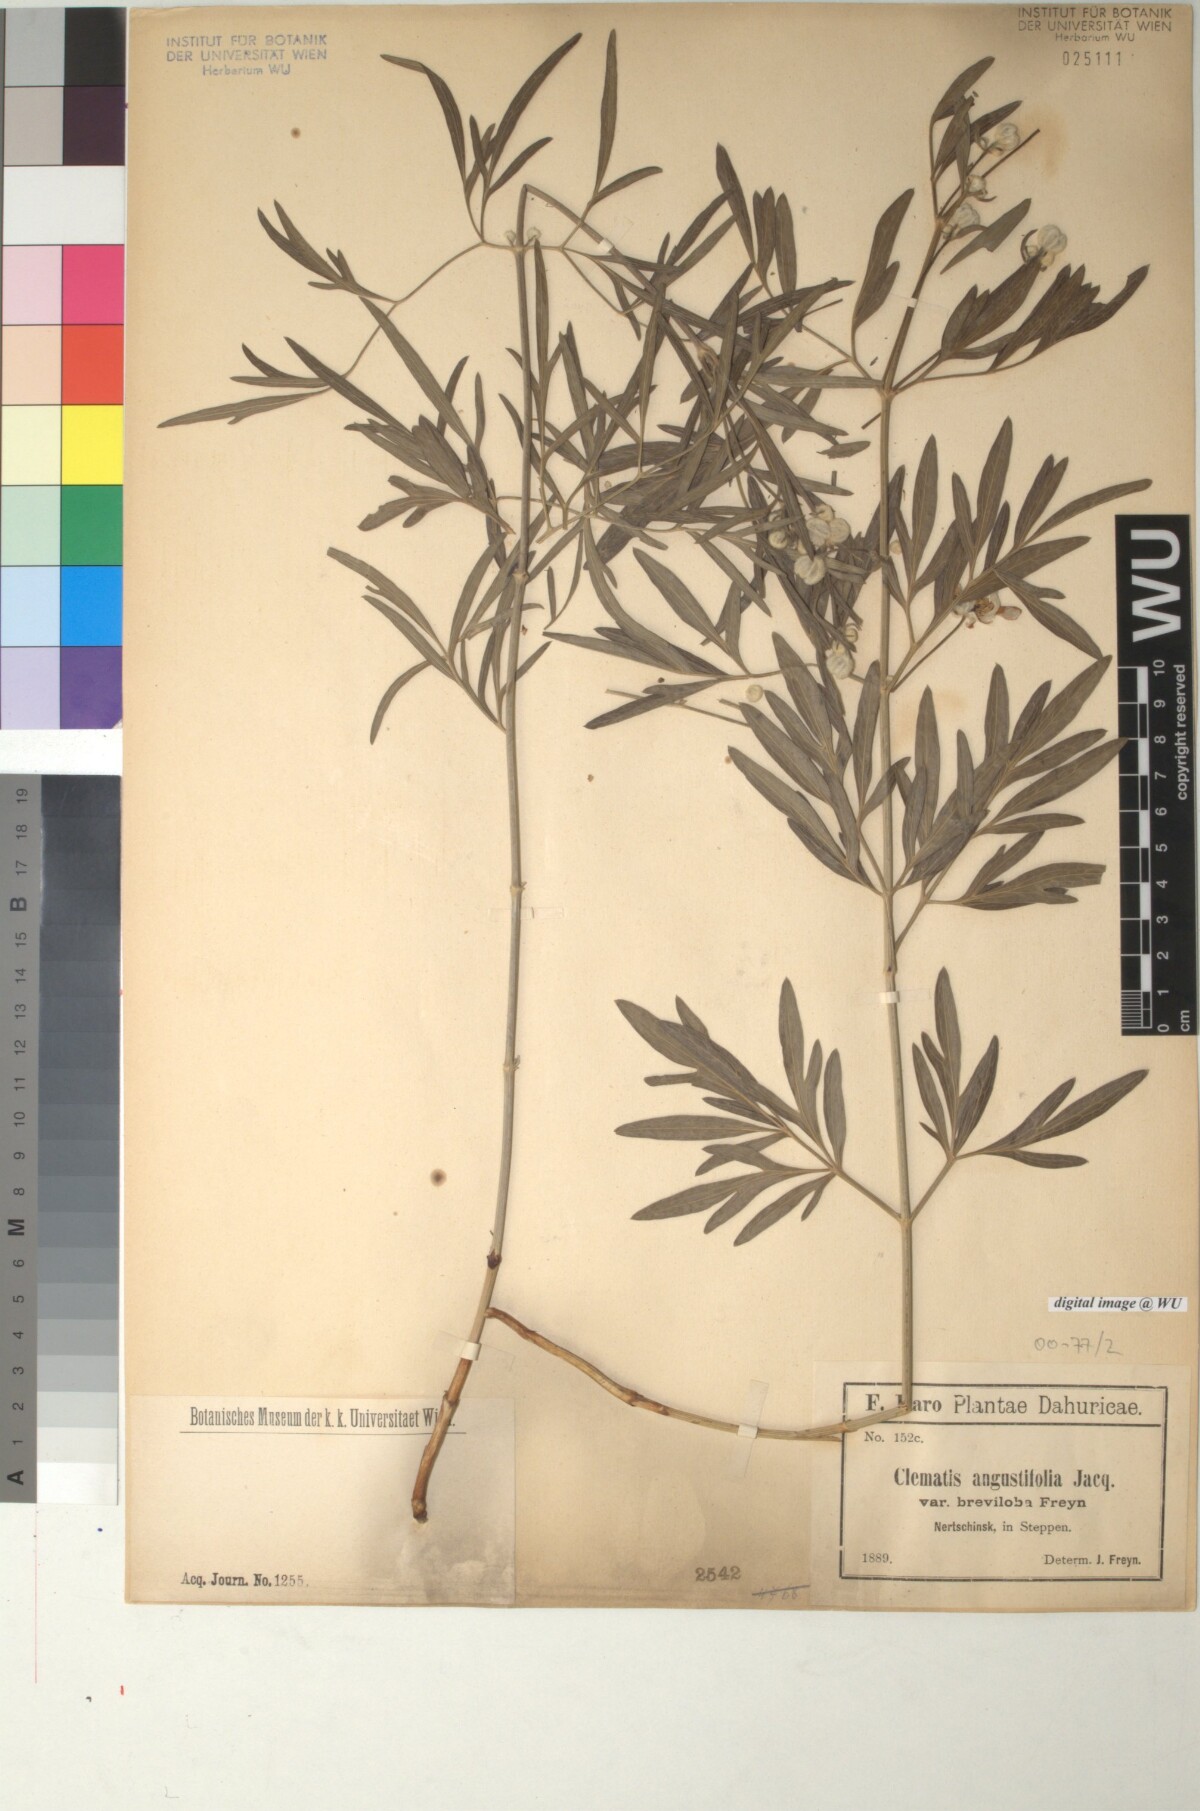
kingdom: Plantae
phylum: Tracheophyta
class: Magnoliopsida
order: Ranunculales
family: Ranunculaceae
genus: Clematis
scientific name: Clematis hexapetala
